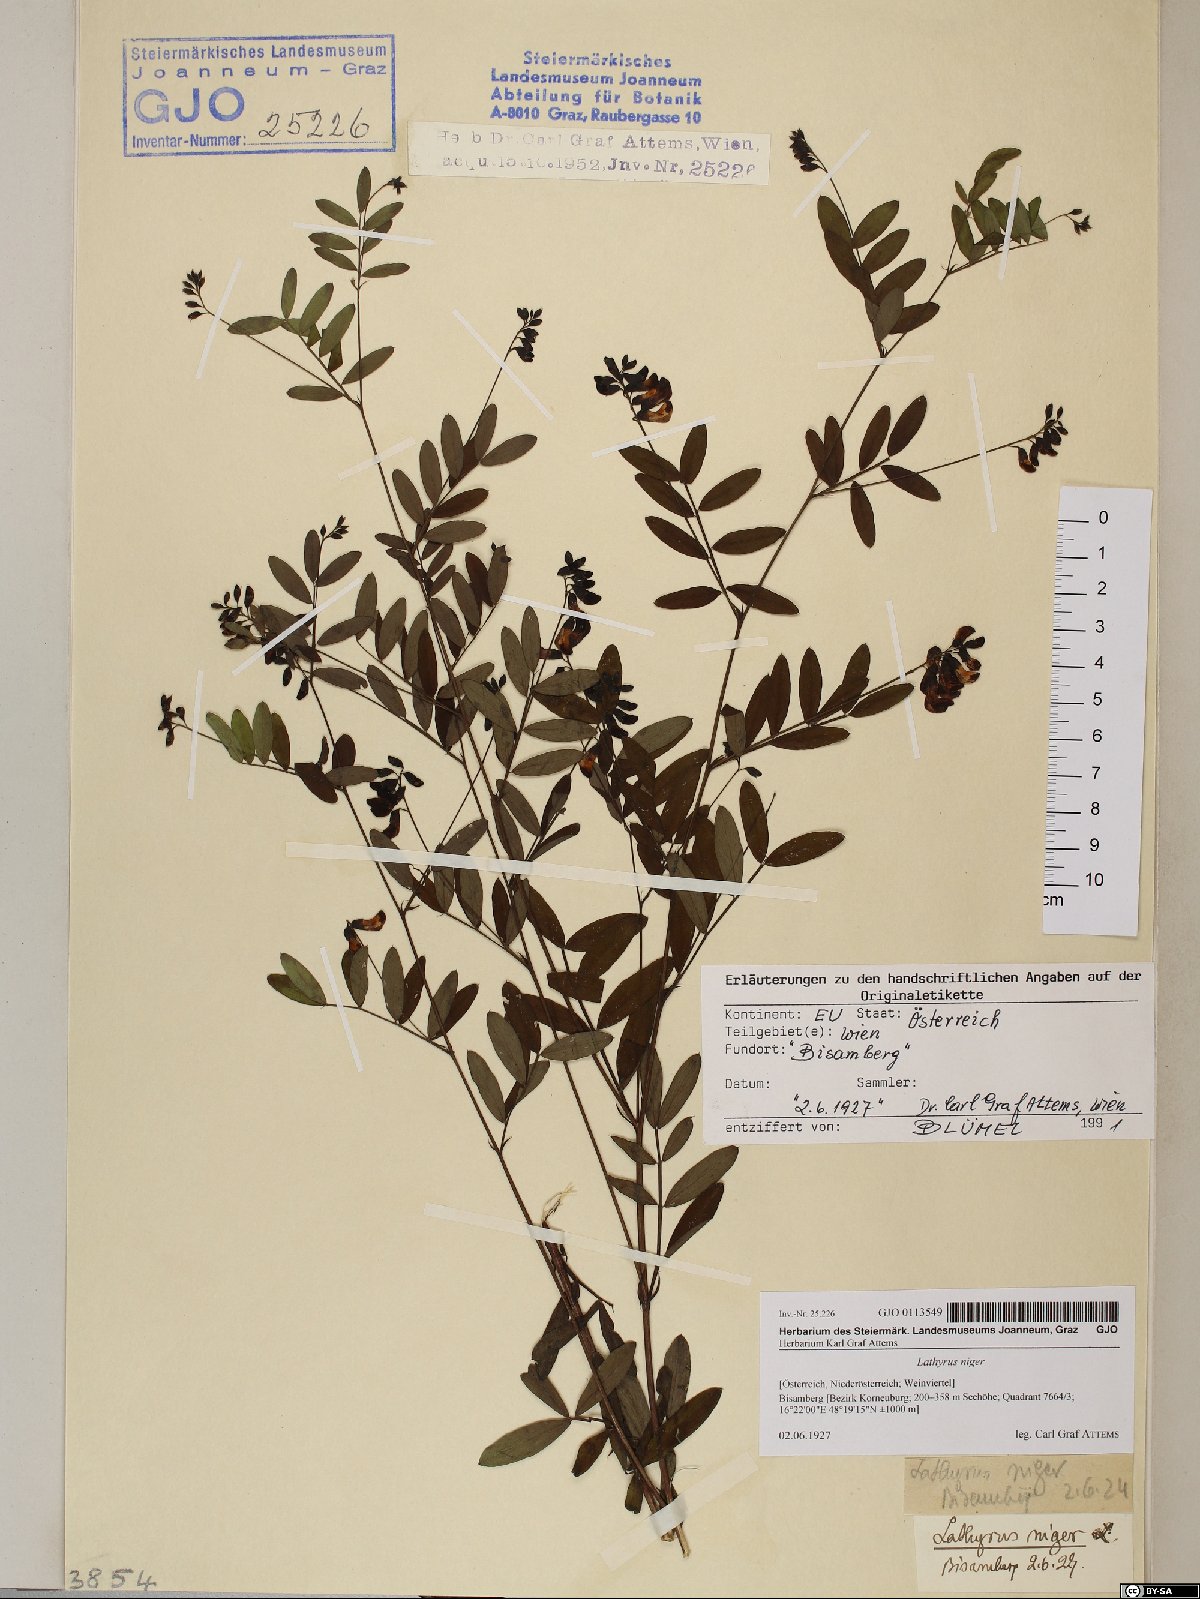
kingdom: Plantae
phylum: Tracheophyta
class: Magnoliopsida
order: Fabales
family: Fabaceae
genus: Lathyrus
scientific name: Lathyrus niger
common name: Black pea
